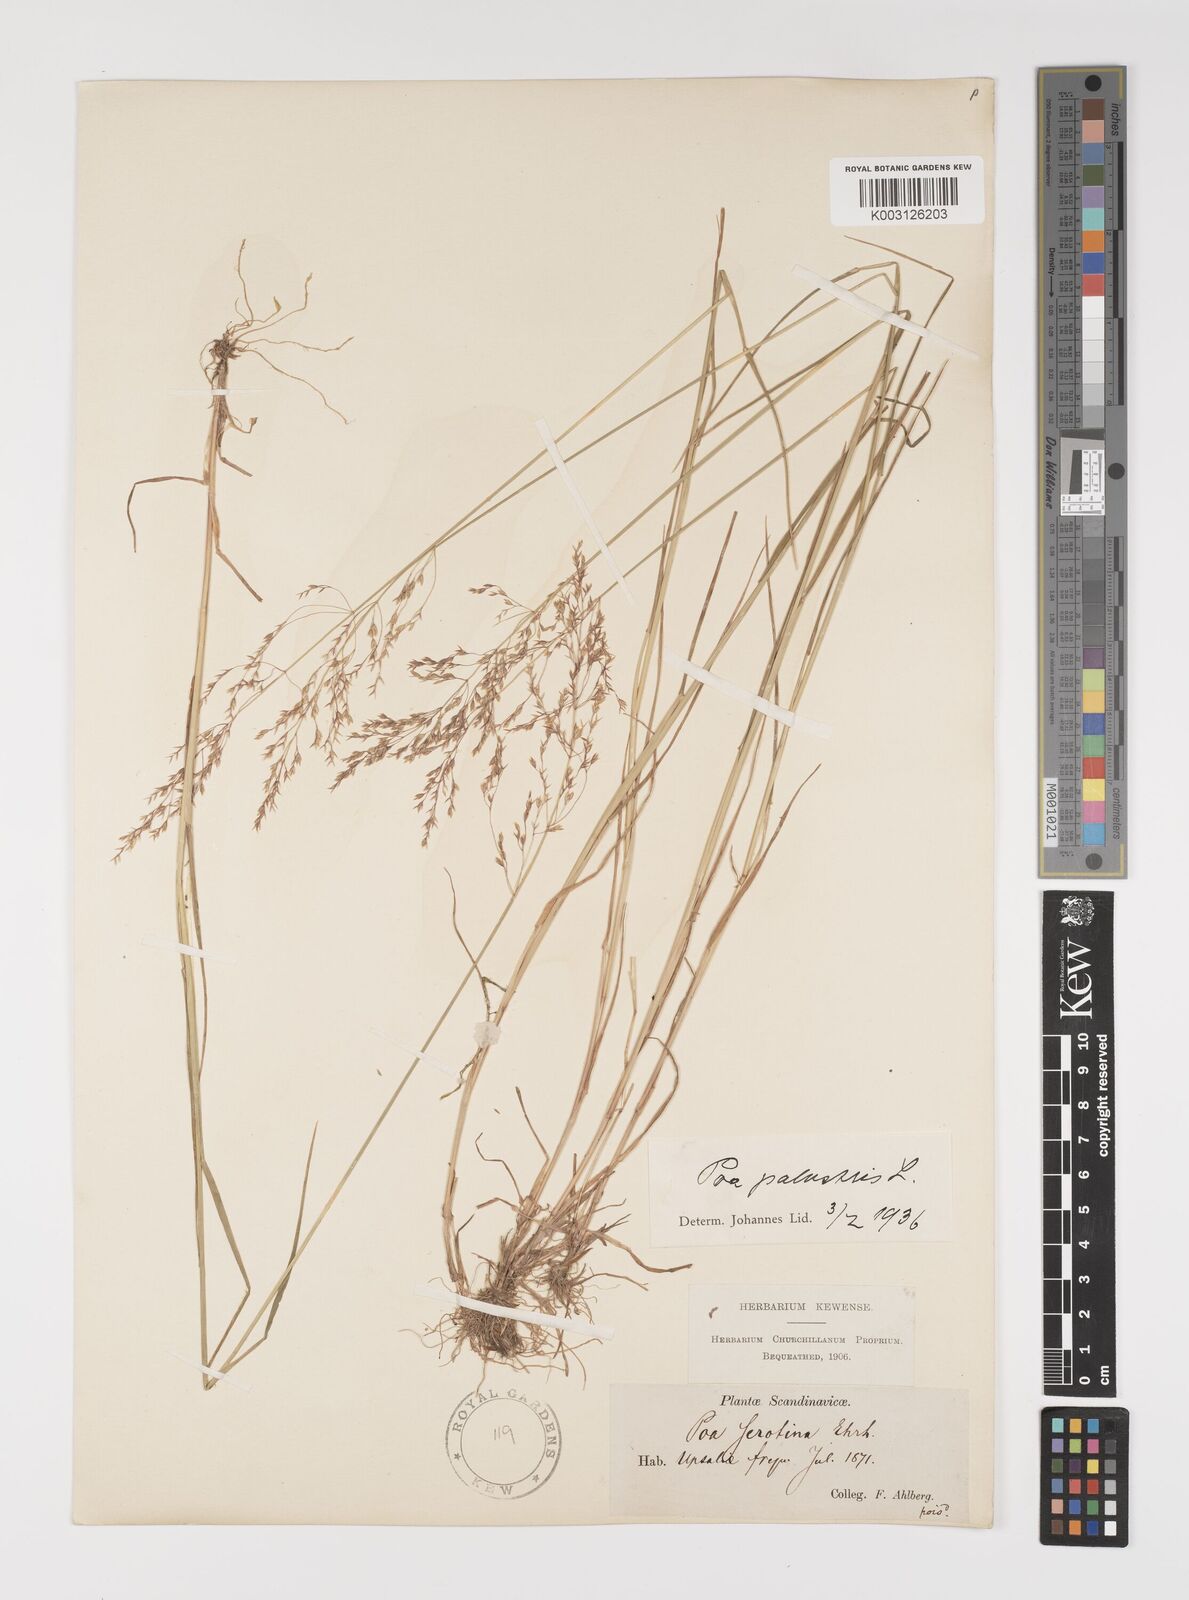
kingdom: Plantae
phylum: Tracheophyta
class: Liliopsida
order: Poales
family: Poaceae
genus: Poa
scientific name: Poa palustris
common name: Swamp meadow-grass
